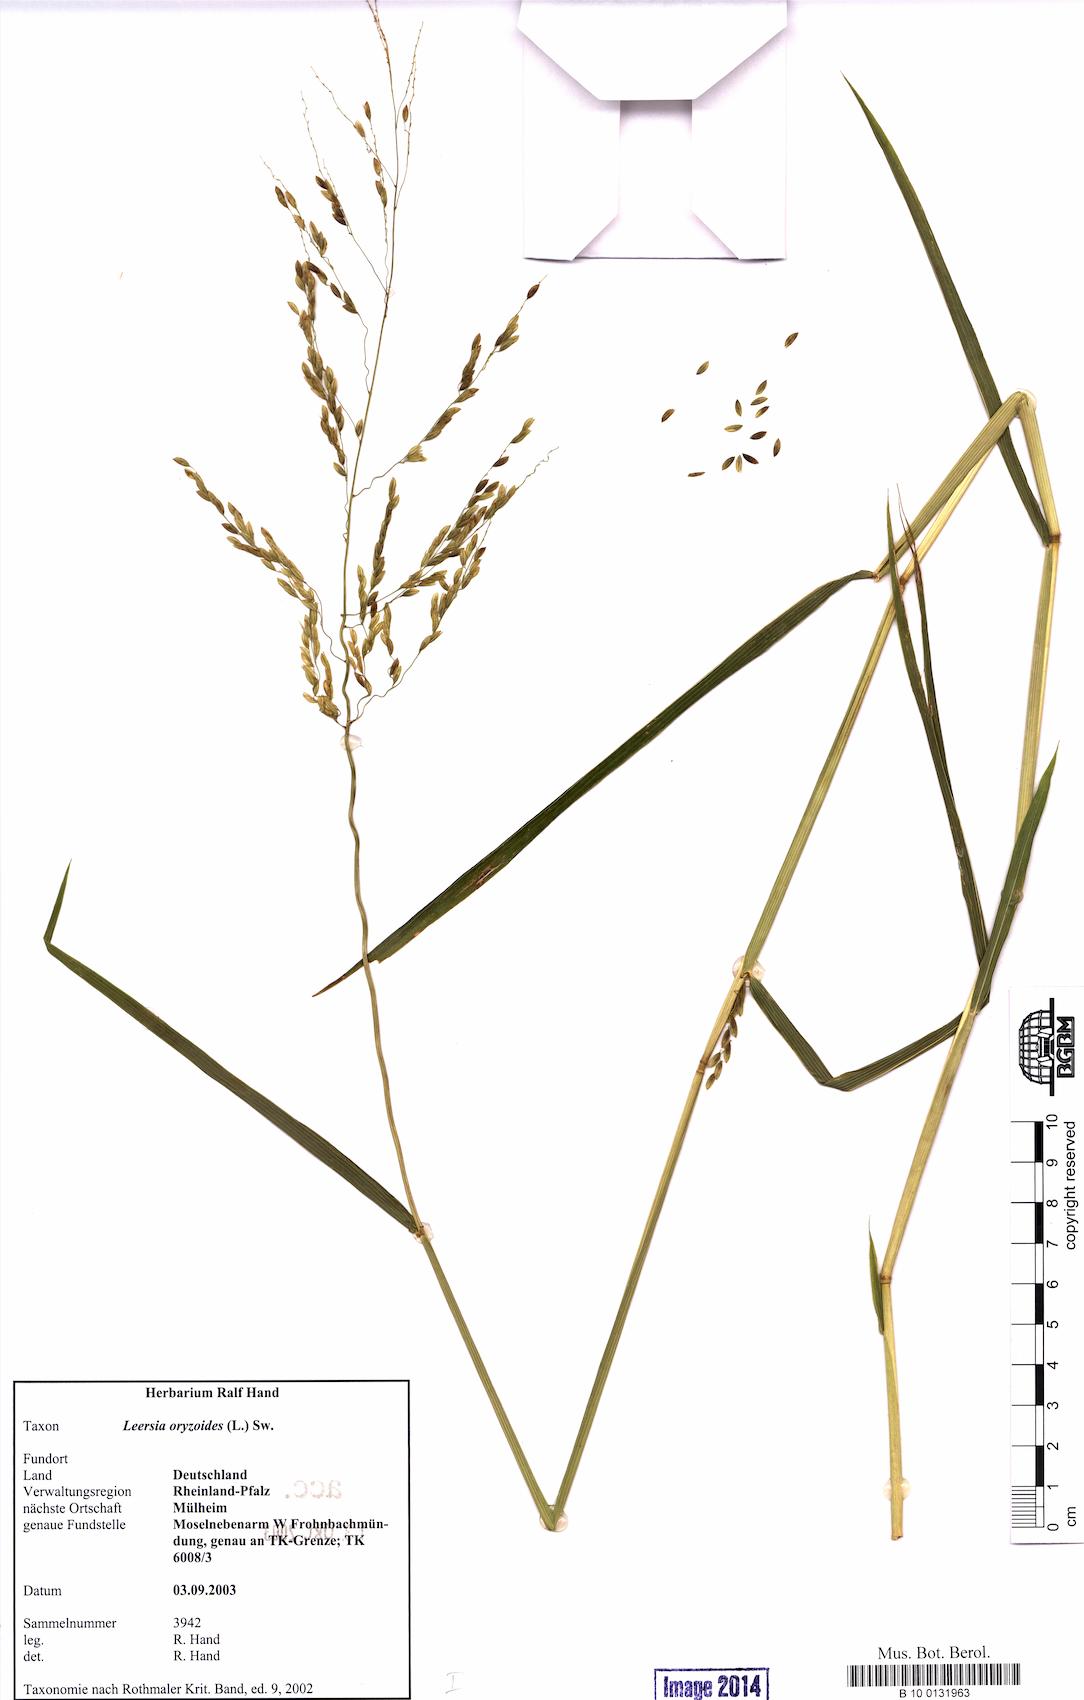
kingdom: Plantae
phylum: Tracheophyta
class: Liliopsida
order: Poales
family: Poaceae
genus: Leersia
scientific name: Leersia oryzoides
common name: Cut-grass
